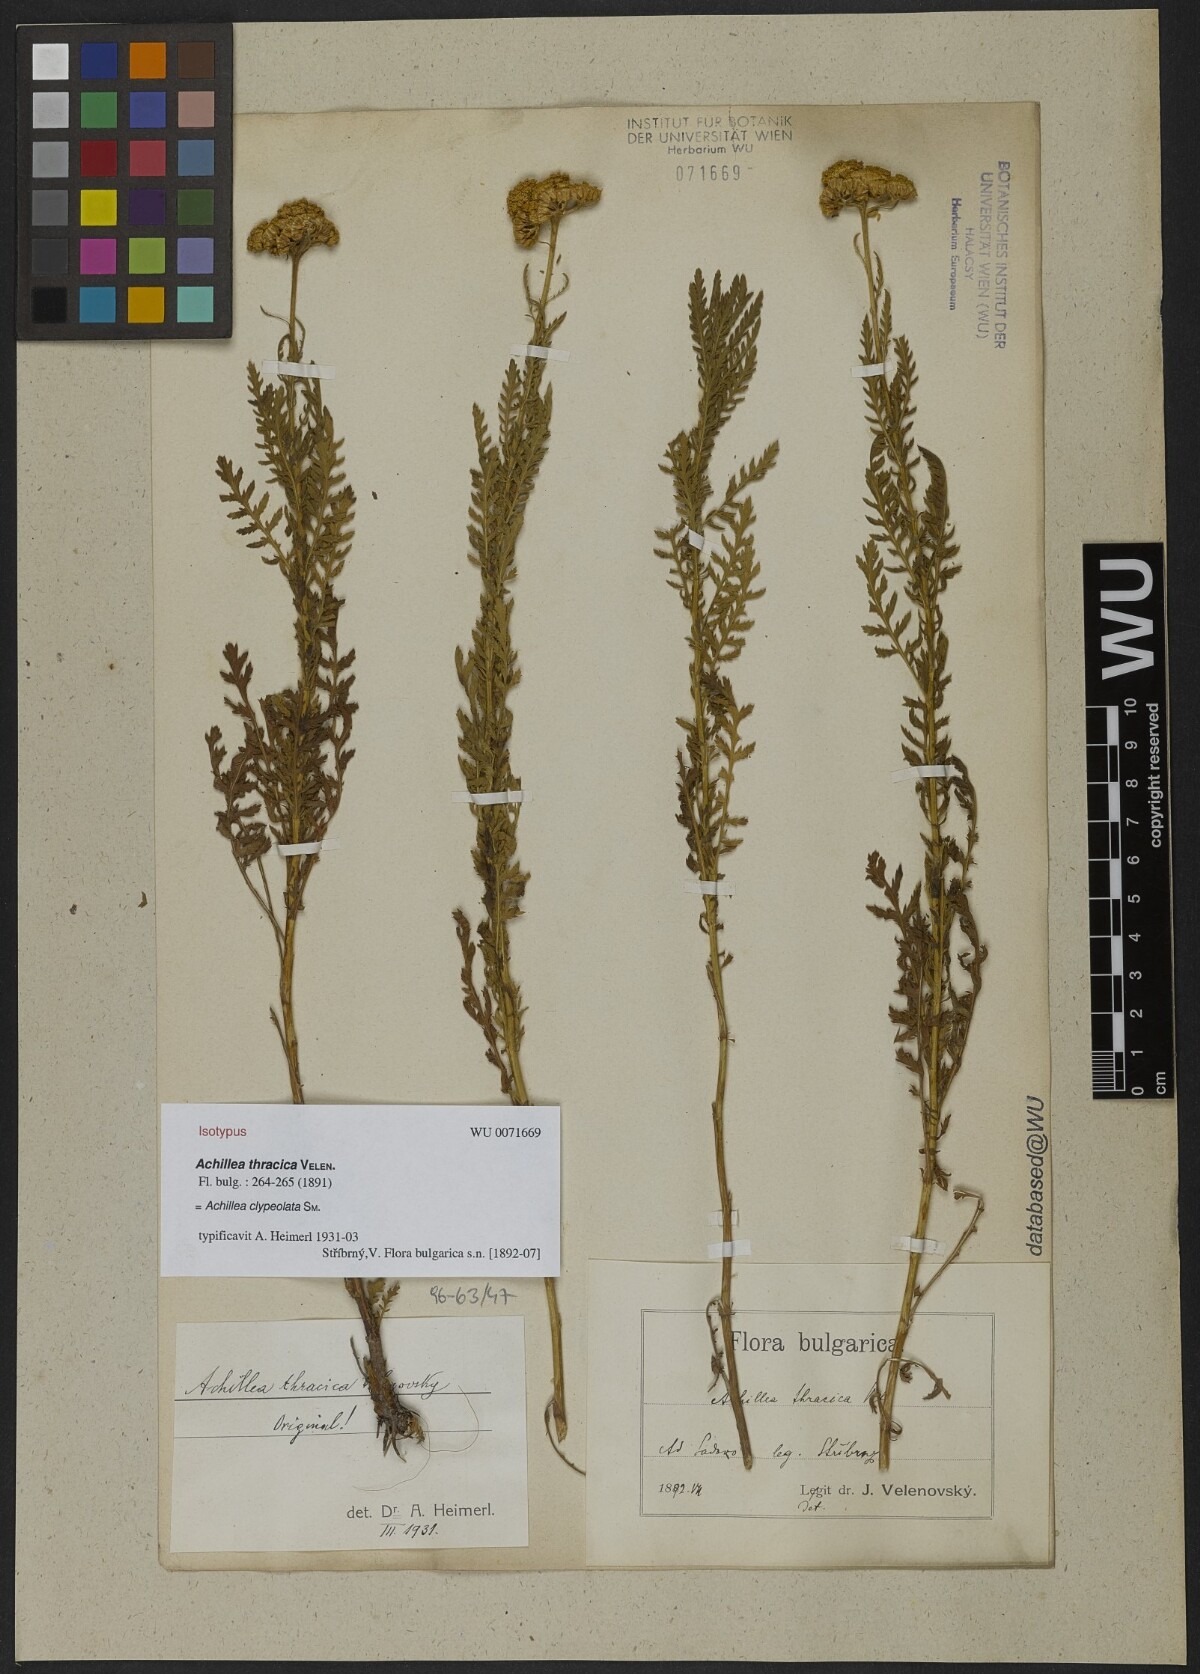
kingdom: Plantae
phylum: Tracheophyta
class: Magnoliopsida
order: Asterales
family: Asteraceae
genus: Achillea
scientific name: Achillea thracica
